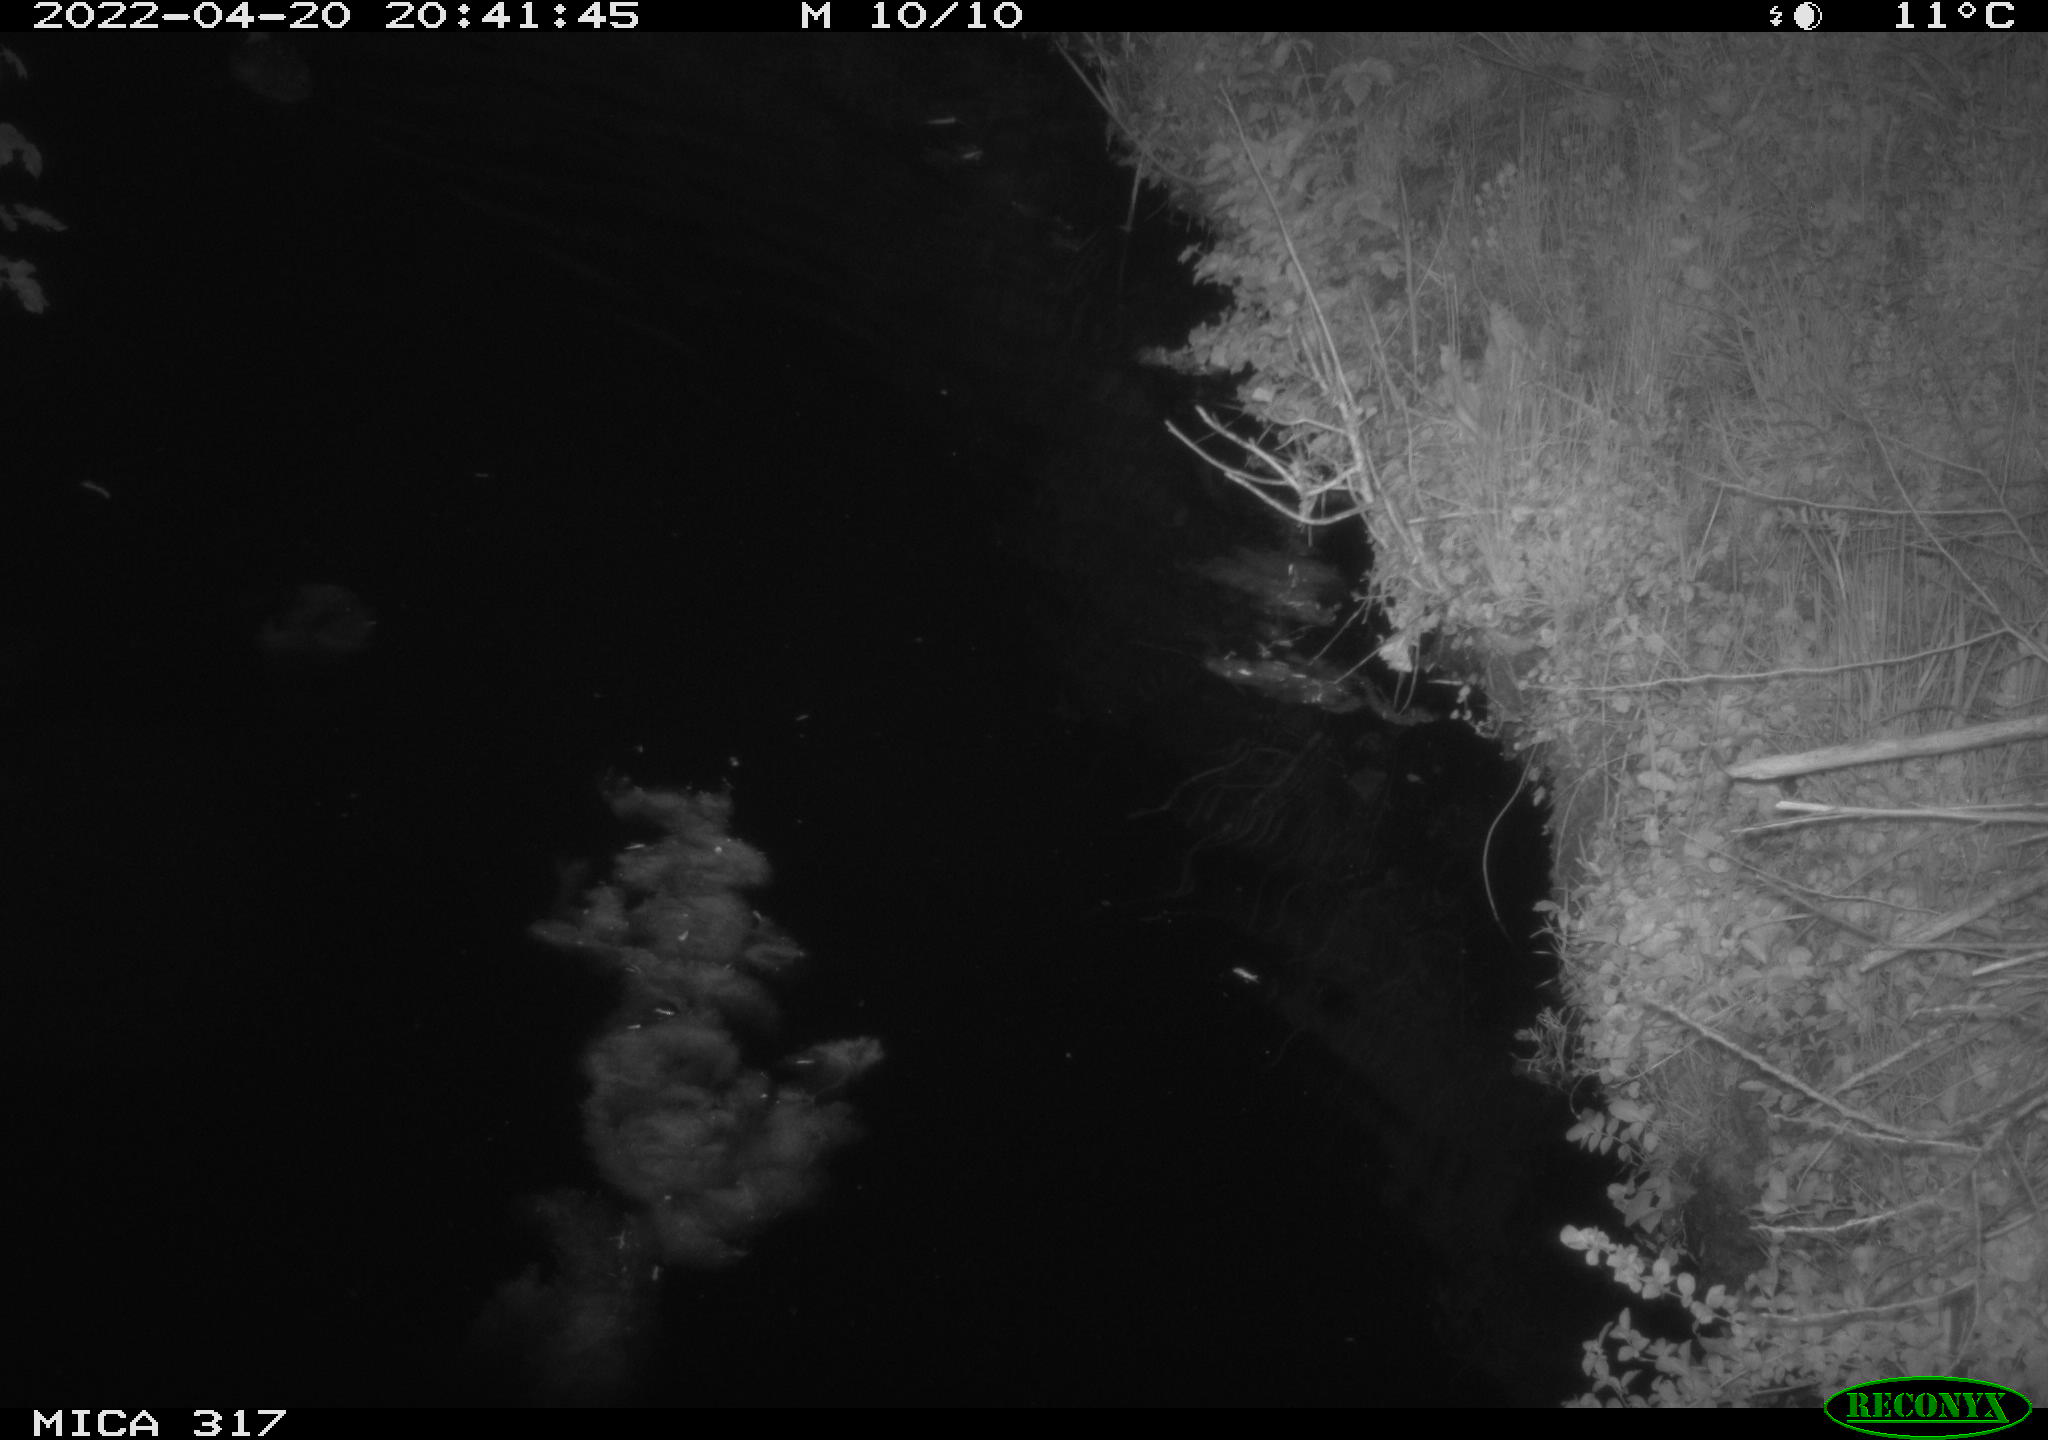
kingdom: Animalia
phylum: Chordata
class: Aves
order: Anseriformes
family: Anatidae
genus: Anas
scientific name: Anas platyrhynchos
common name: Mallard
